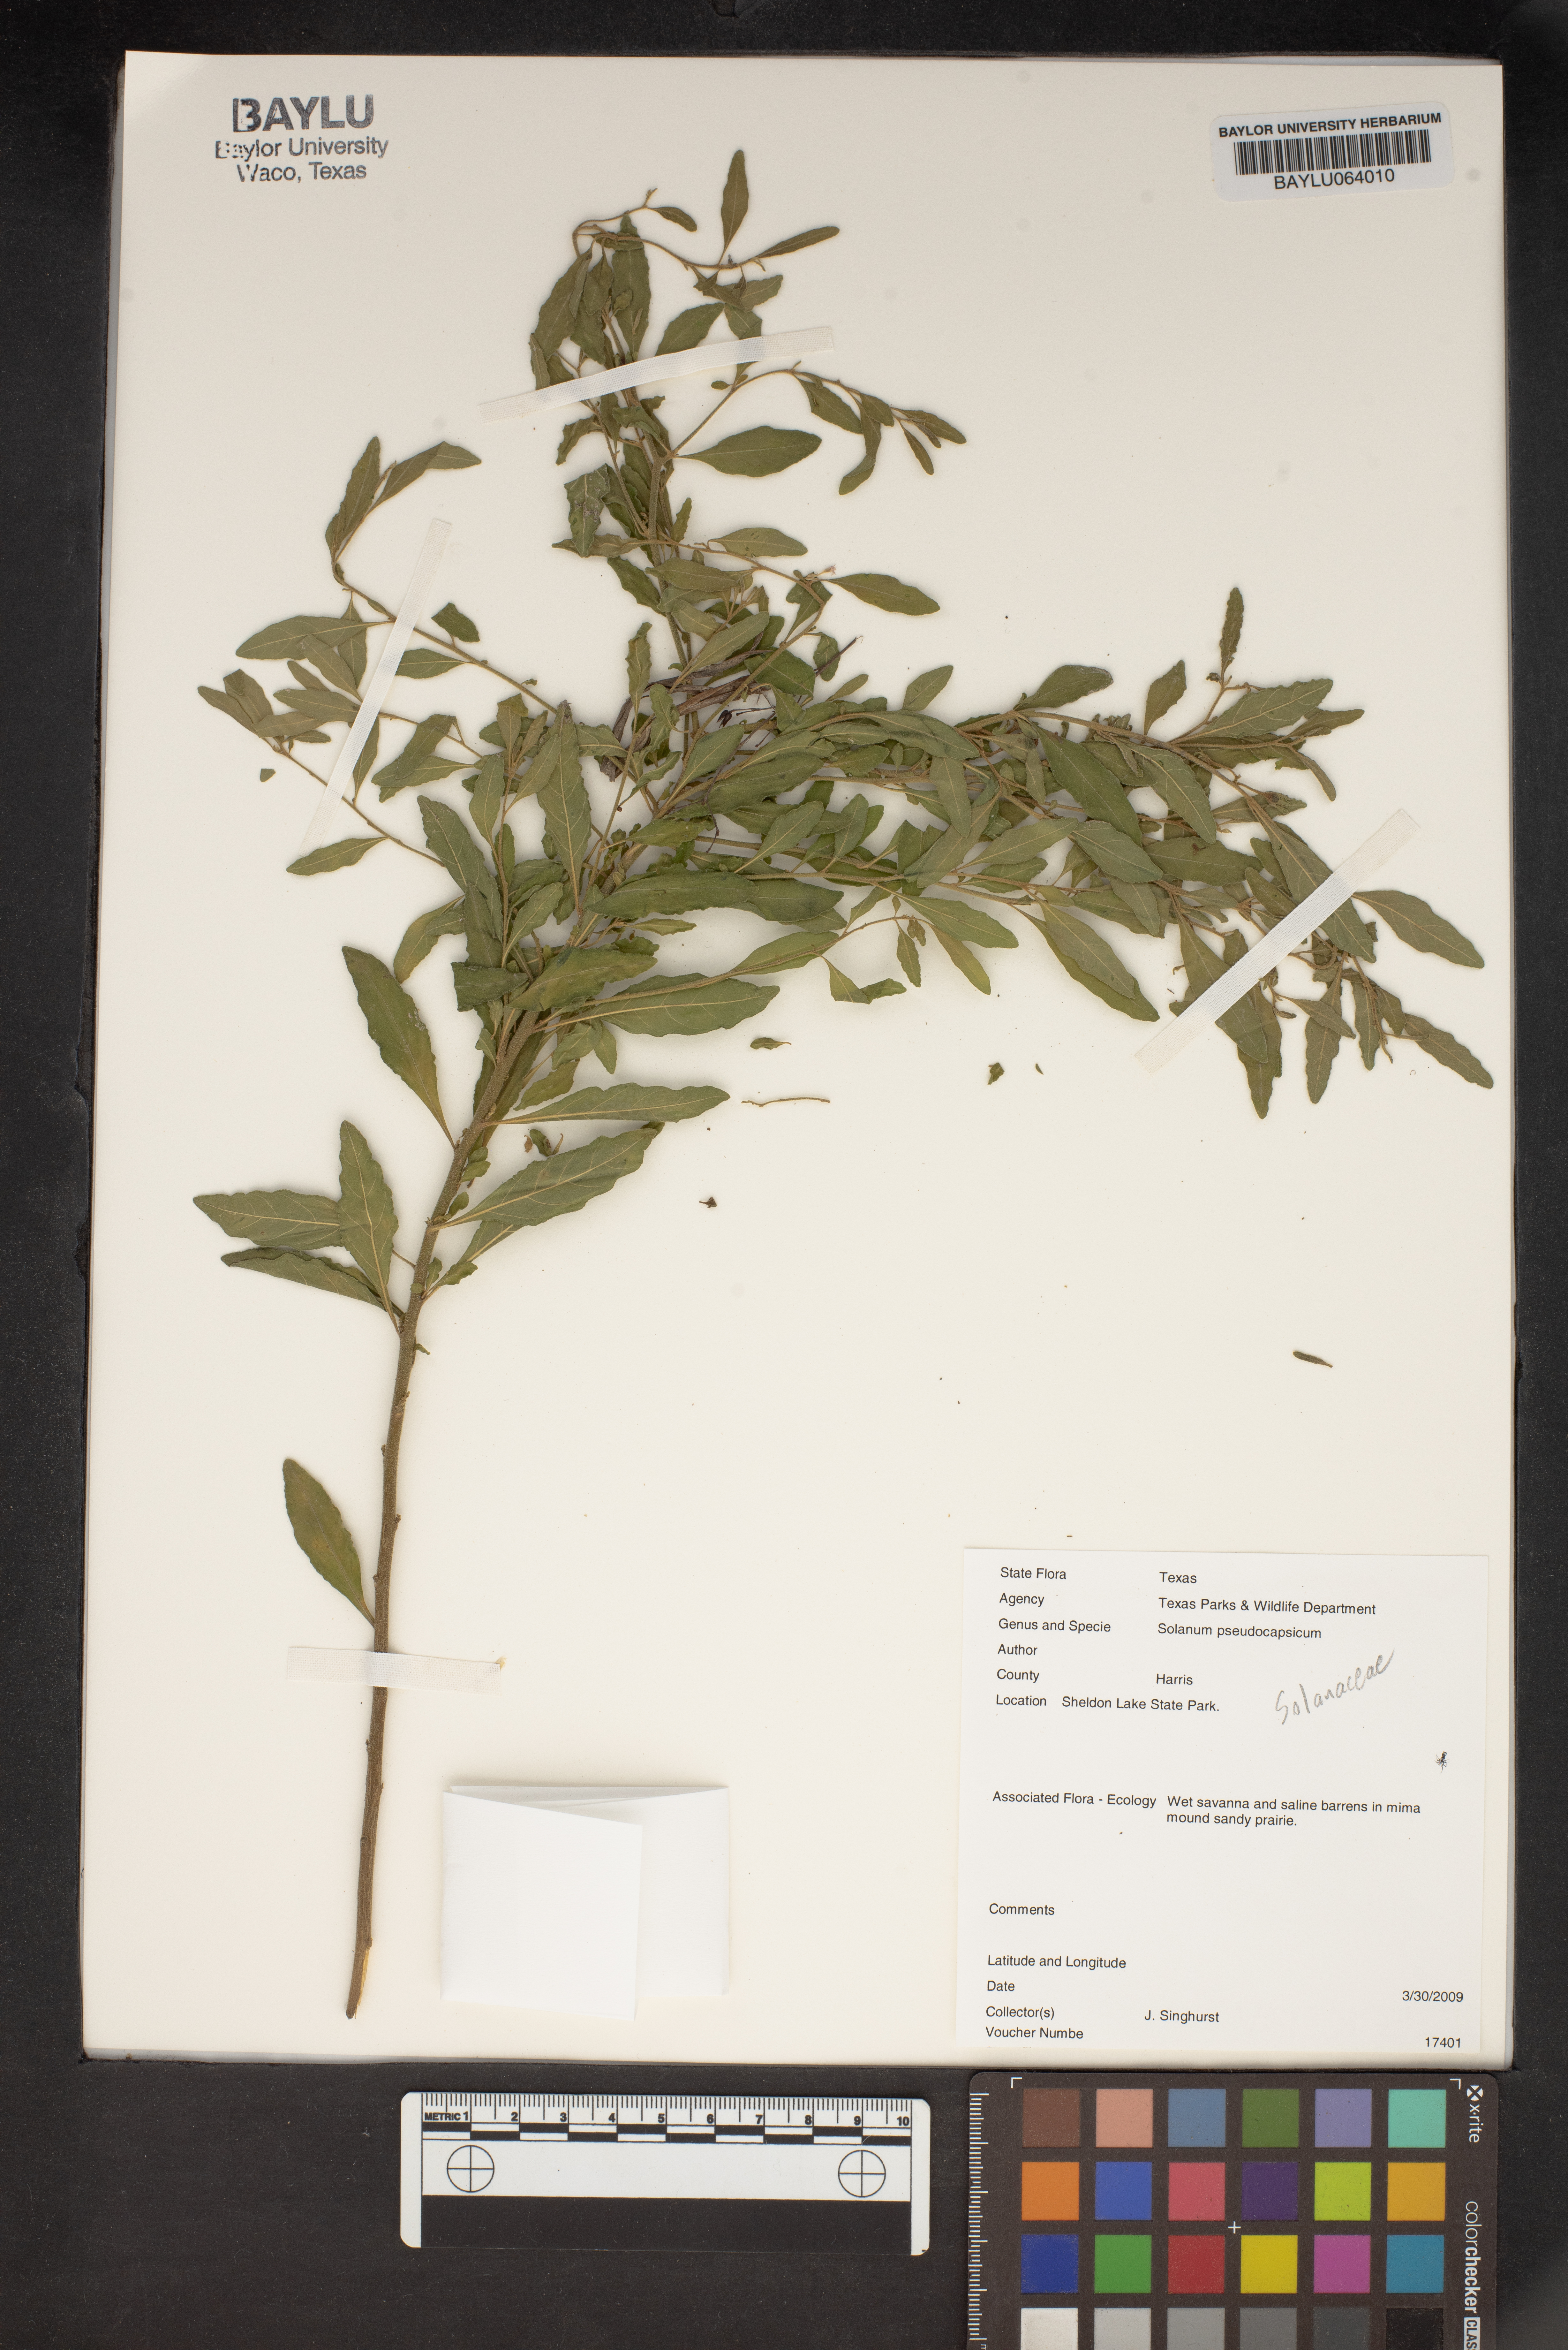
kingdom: Plantae
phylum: Tracheophyta
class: Magnoliopsida
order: Solanales
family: Solanaceae
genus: Solanum
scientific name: Solanum pseudocapsicum
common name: Jerusalem cherry
